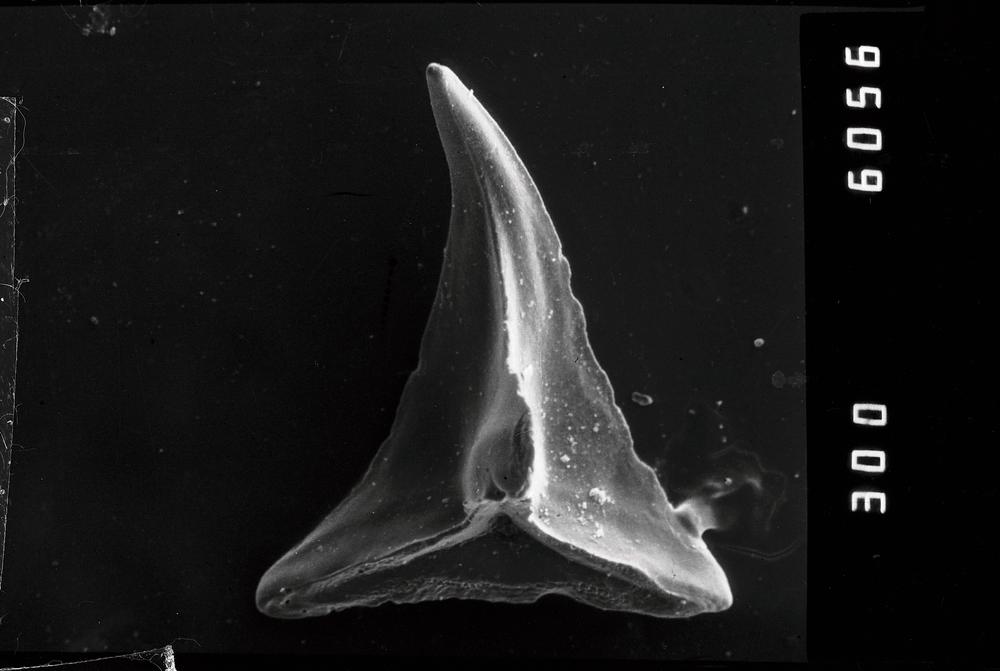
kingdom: Animalia
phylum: Chordata
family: Acodontidae
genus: Tripodus
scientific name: Tripodus
